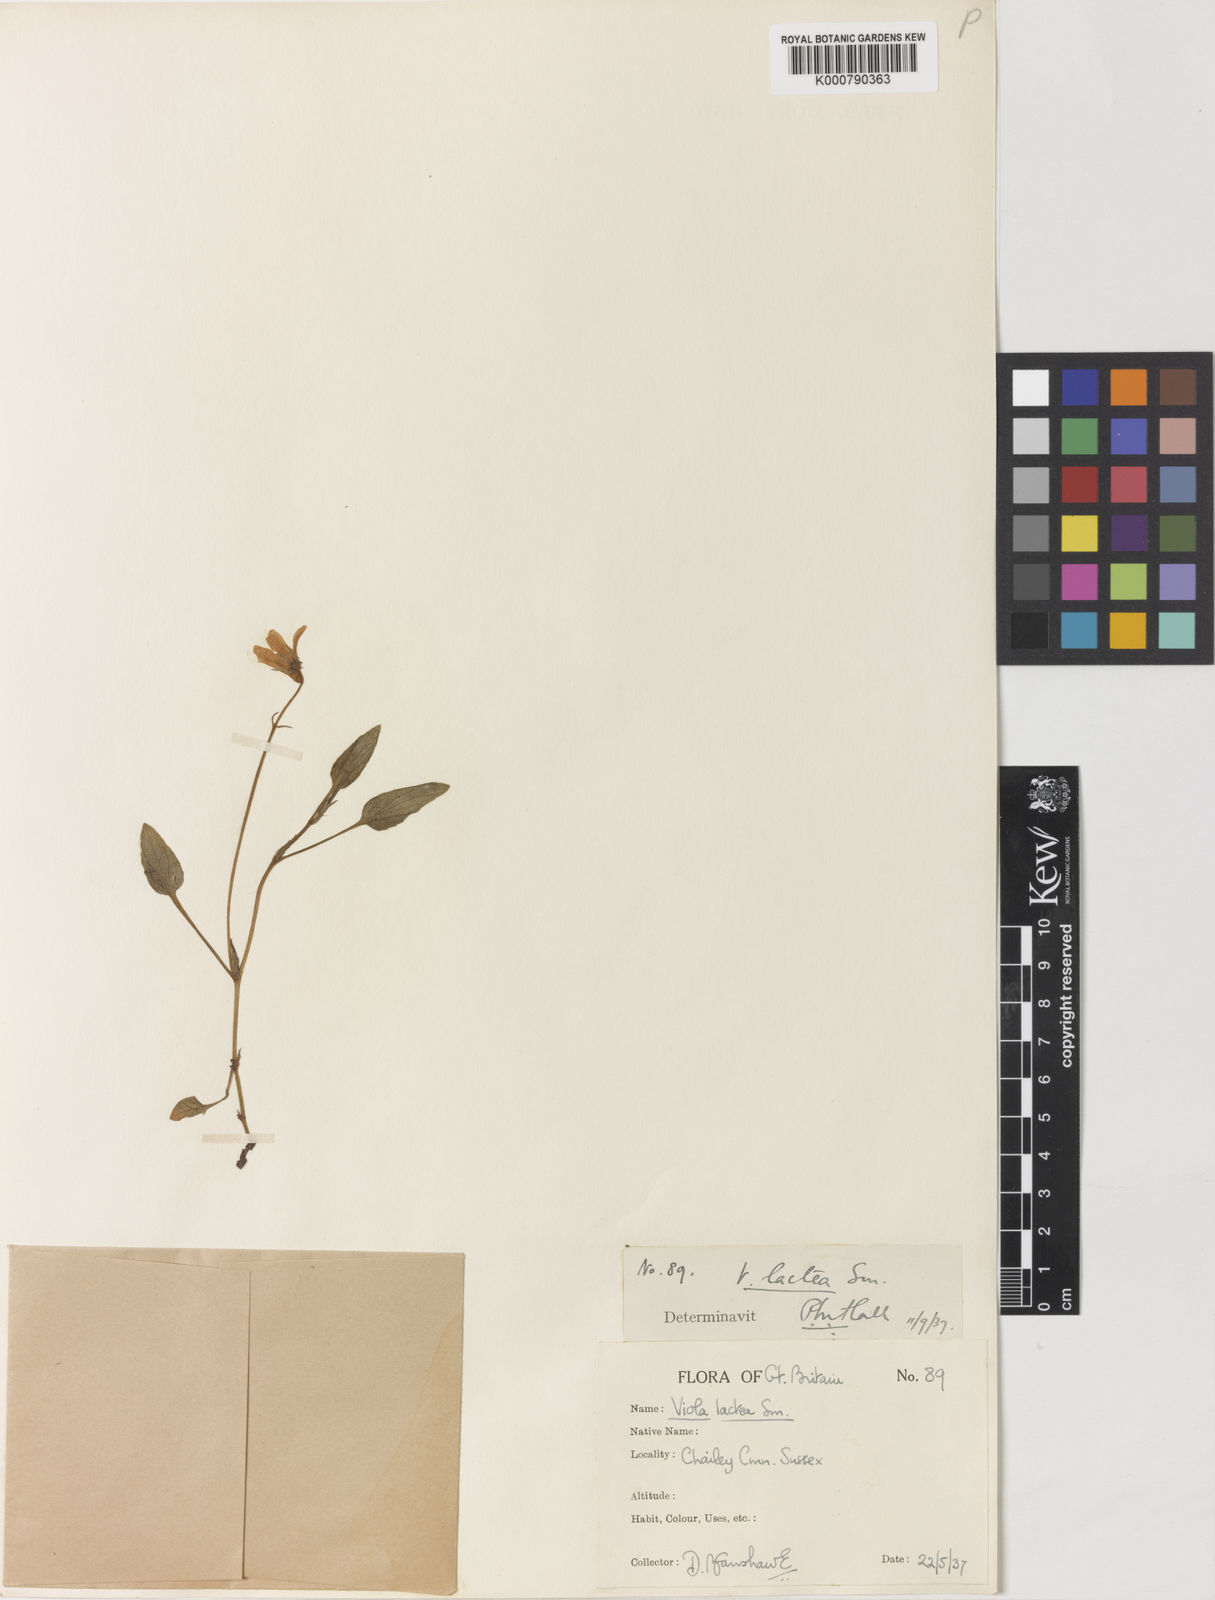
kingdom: Plantae
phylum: Tracheophyta
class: Magnoliopsida
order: Malpighiales
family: Violaceae
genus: Viola
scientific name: Viola lactea
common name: Pale dog-violet
